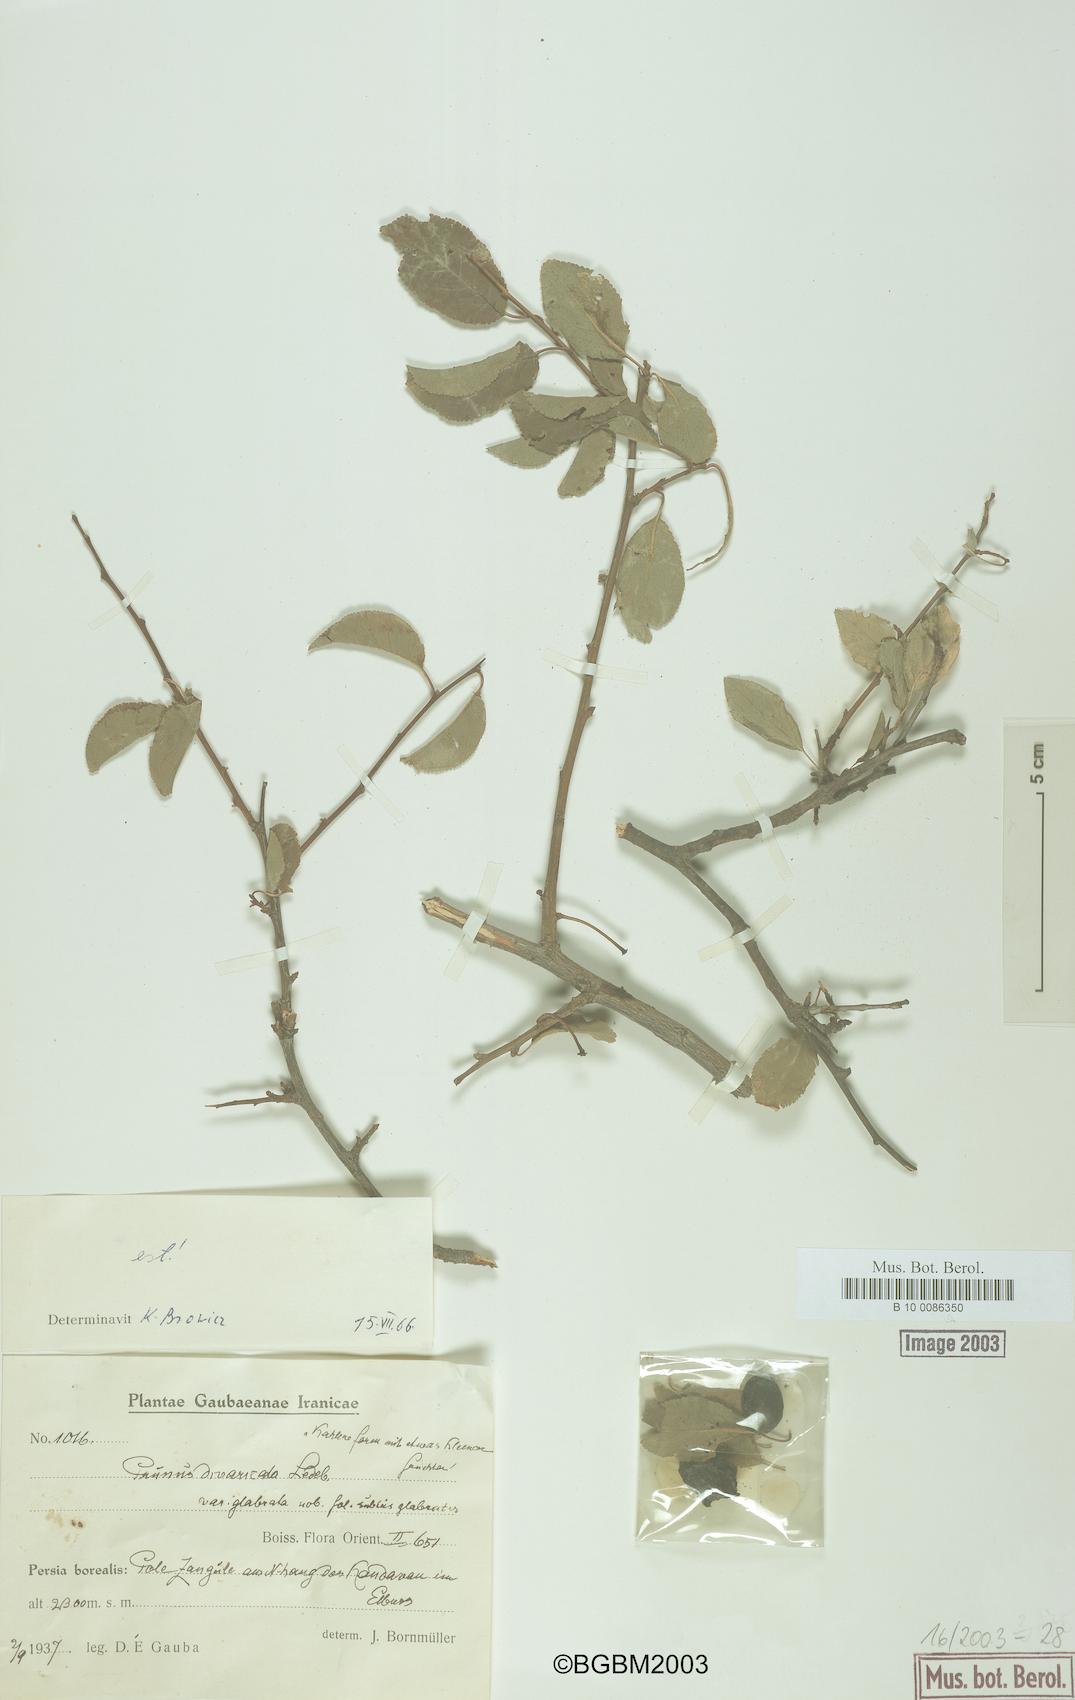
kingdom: Plantae
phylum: Tracheophyta
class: Magnoliopsida
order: Rosales
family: Rosaceae
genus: Prunus
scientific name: Prunus cerasifera
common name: Cherry plum
